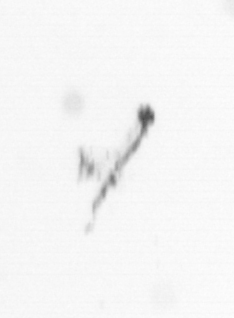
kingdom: Chromista
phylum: Ochrophyta
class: Bacillariophyceae
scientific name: Bacillariophyceae
